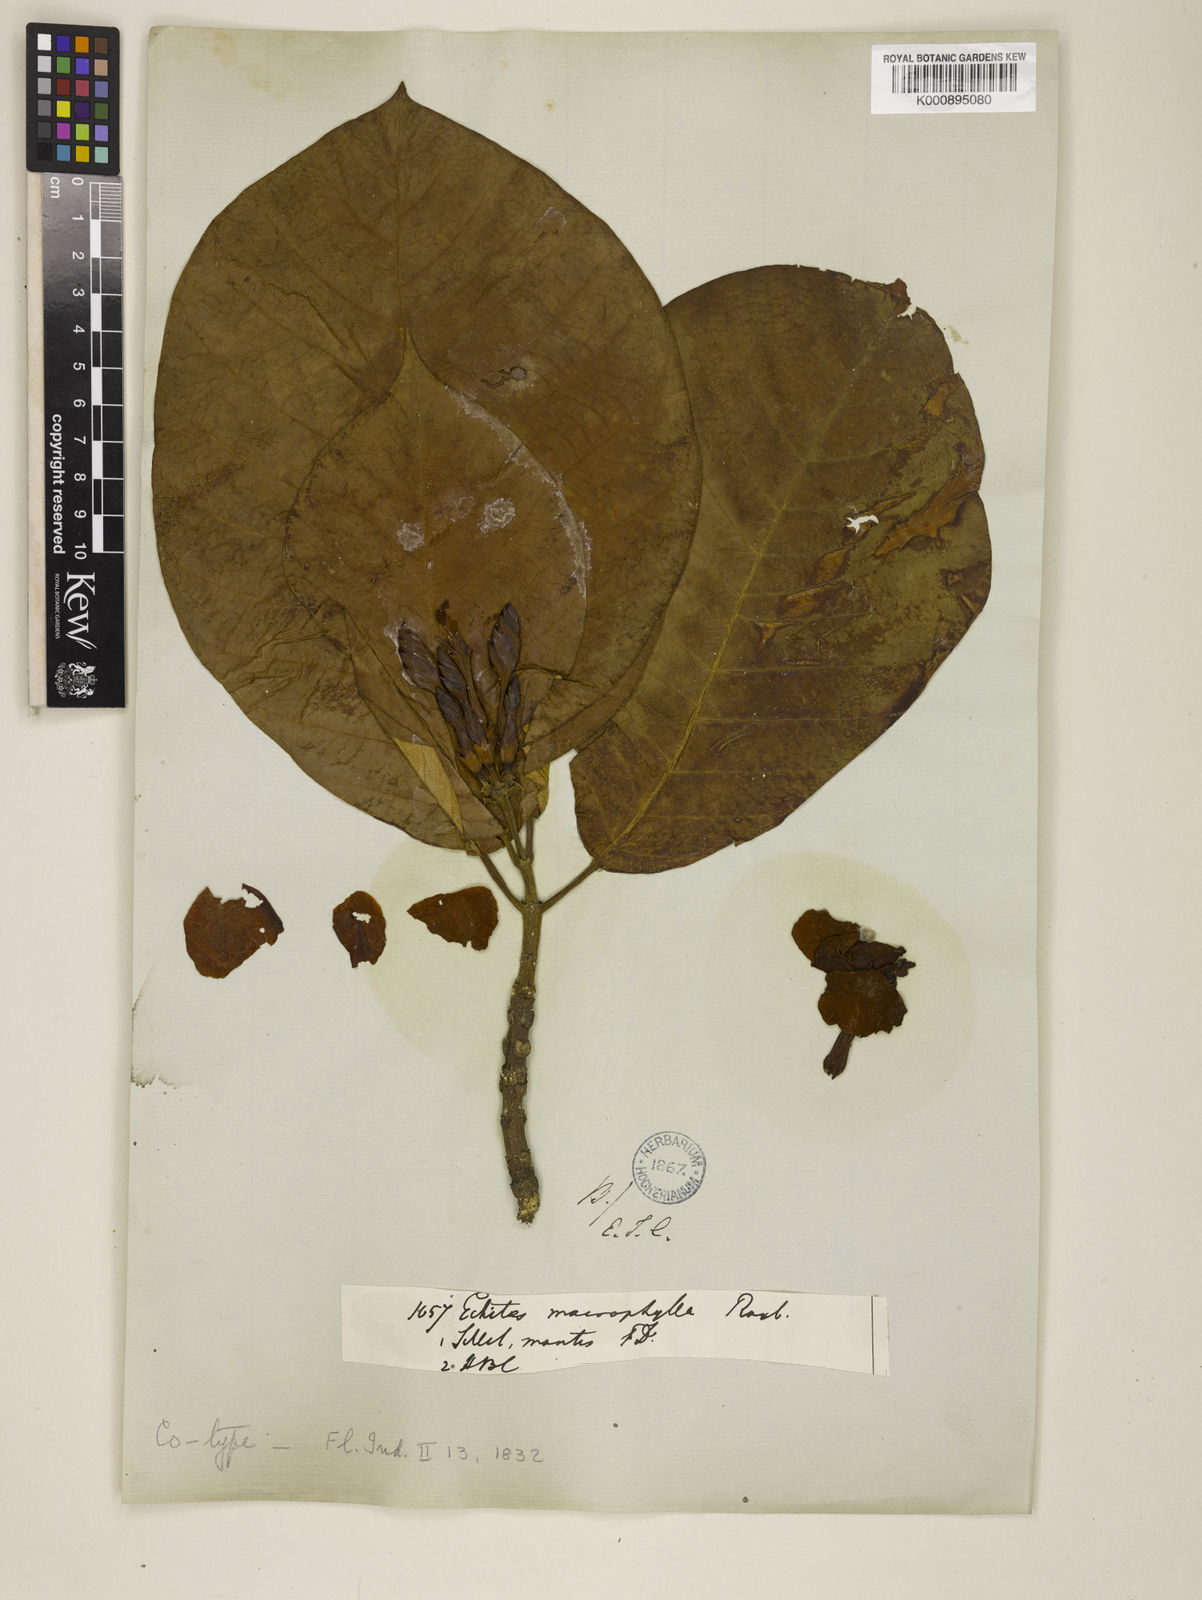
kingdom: Plantae
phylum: Tracheophyta
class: Magnoliopsida
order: Gentianales
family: Apocynaceae
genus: Chonemorpha
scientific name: Chonemorpha fragrans
